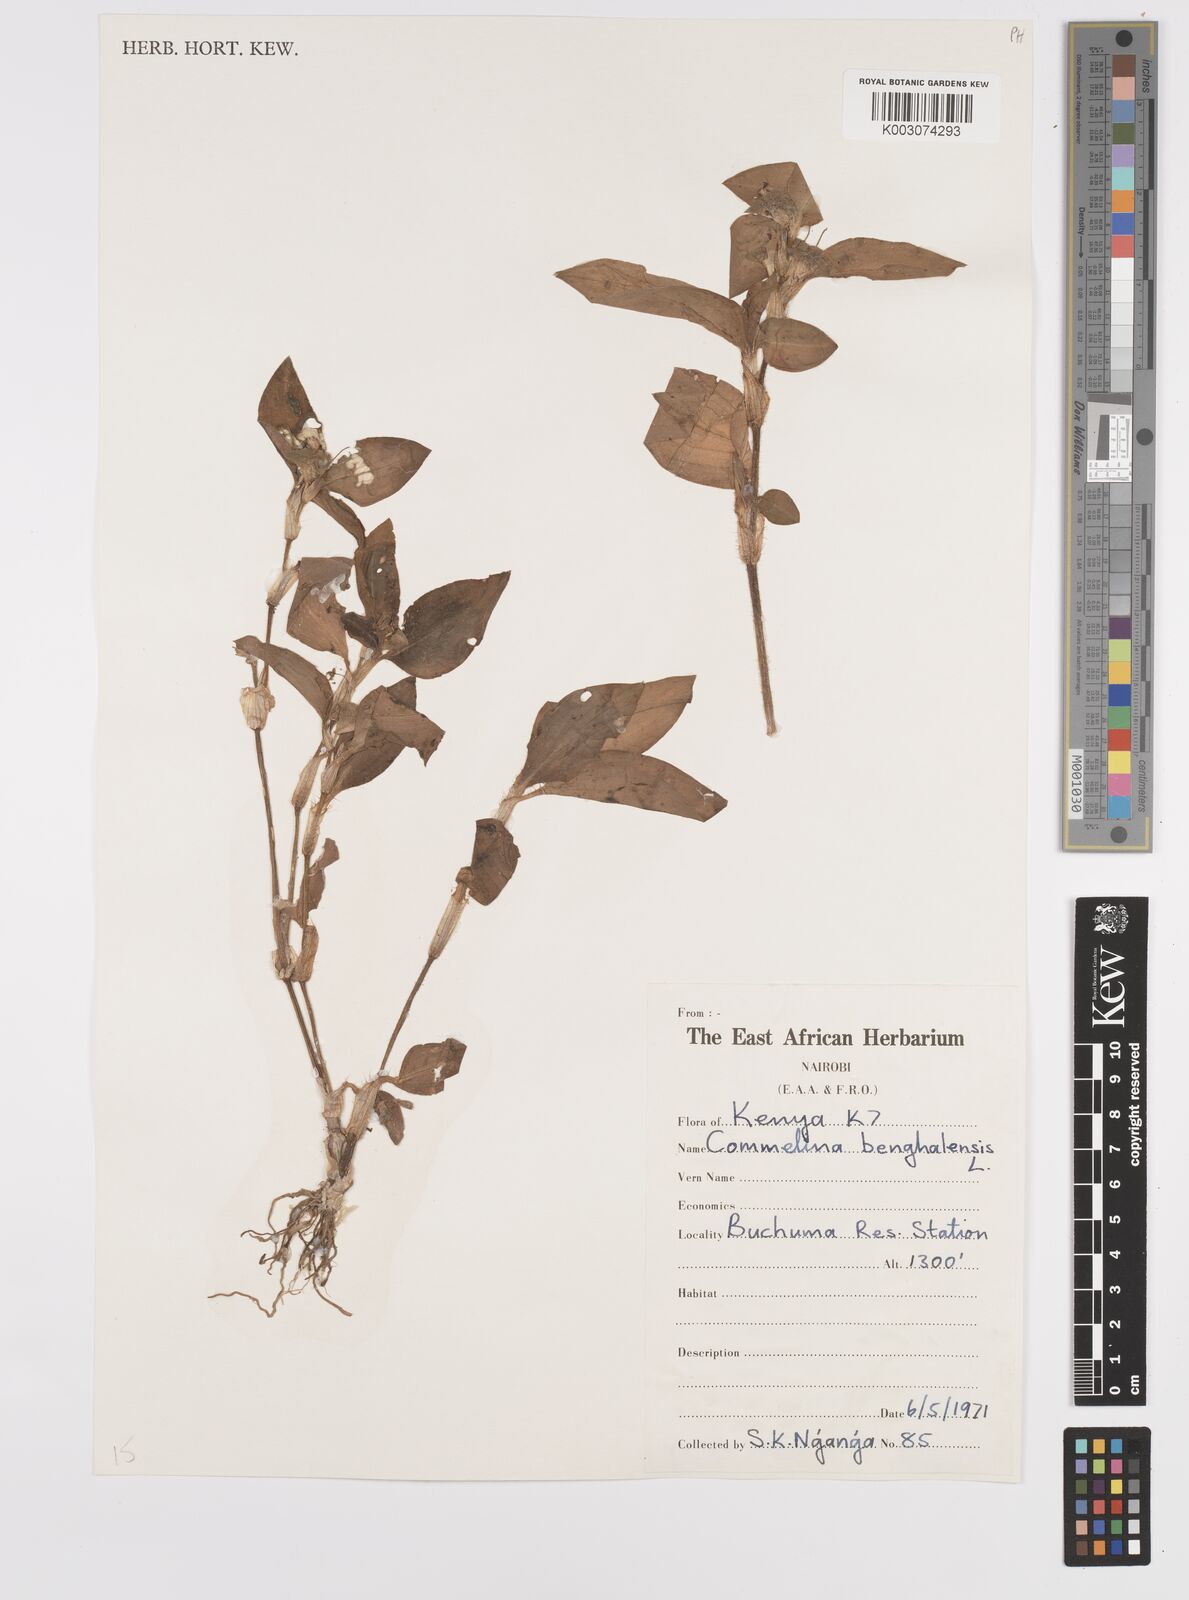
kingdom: Plantae
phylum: Tracheophyta
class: Liliopsida
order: Commelinales
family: Commelinaceae
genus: Commelina
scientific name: Commelina benghalensis
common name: Jio
